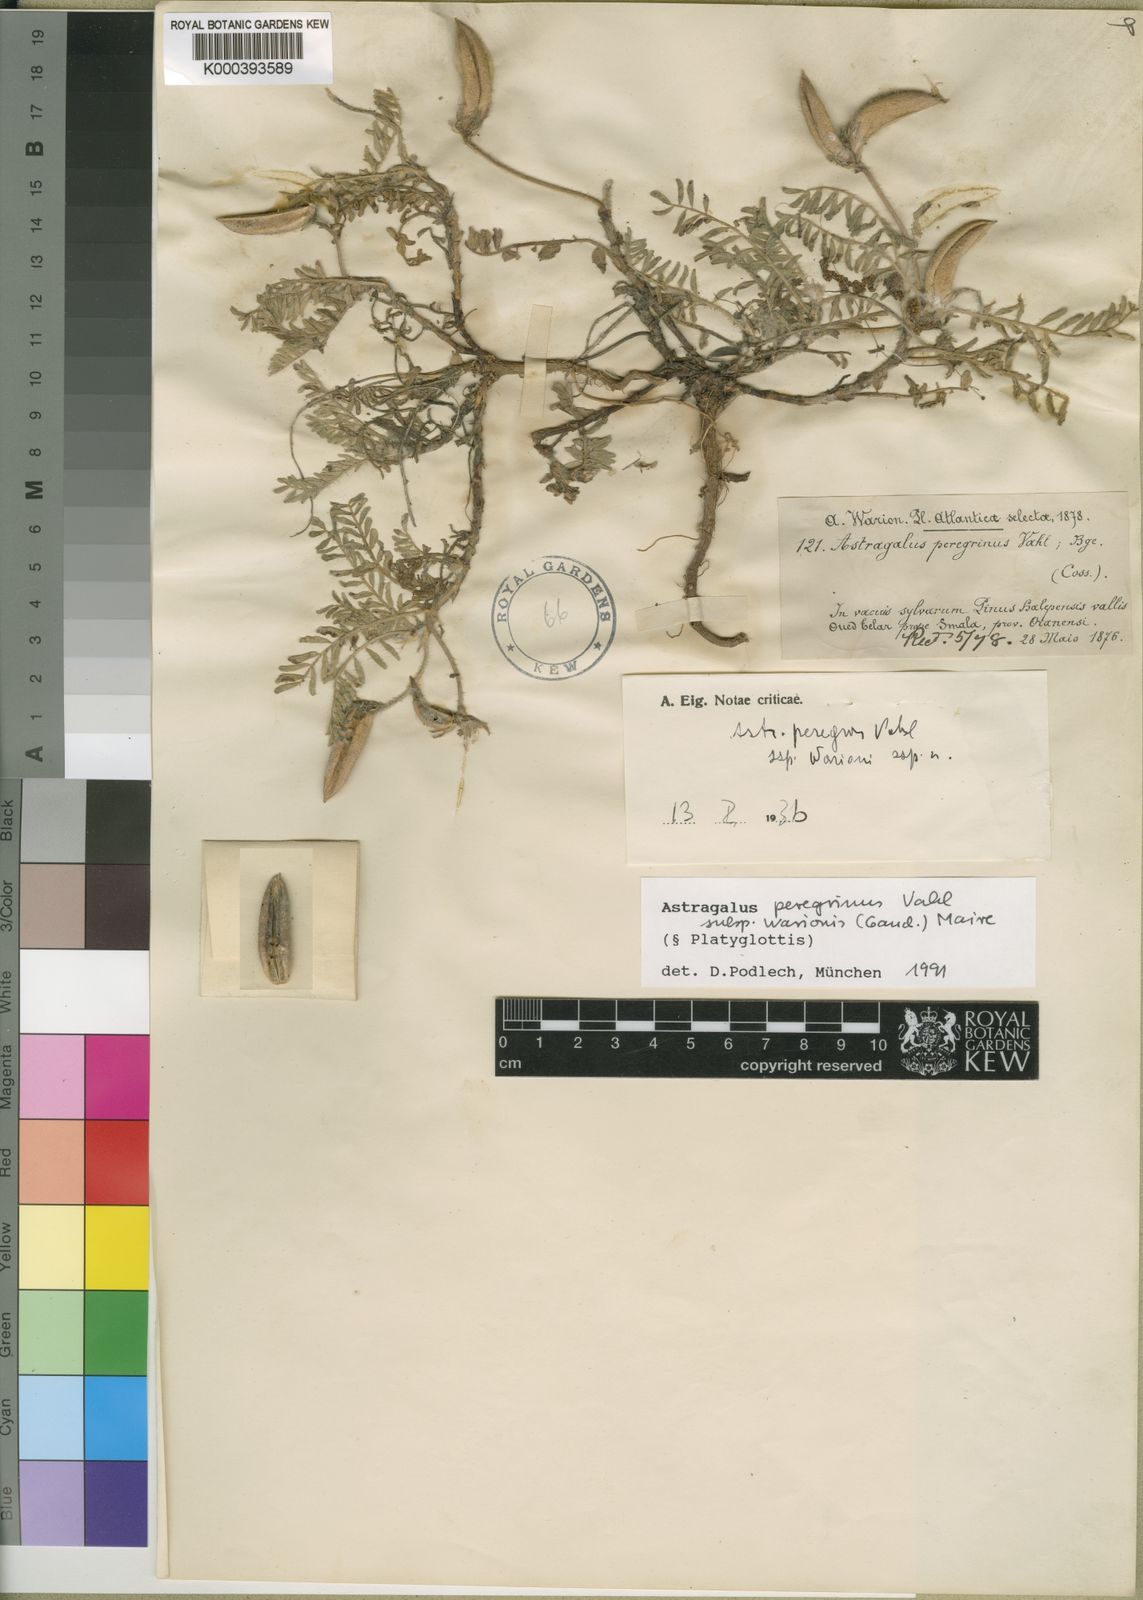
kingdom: Plantae
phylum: Tracheophyta
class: Magnoliopsida
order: Fabales
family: Fabaceae
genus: Astragalus
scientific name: Astragalus peregrinus
